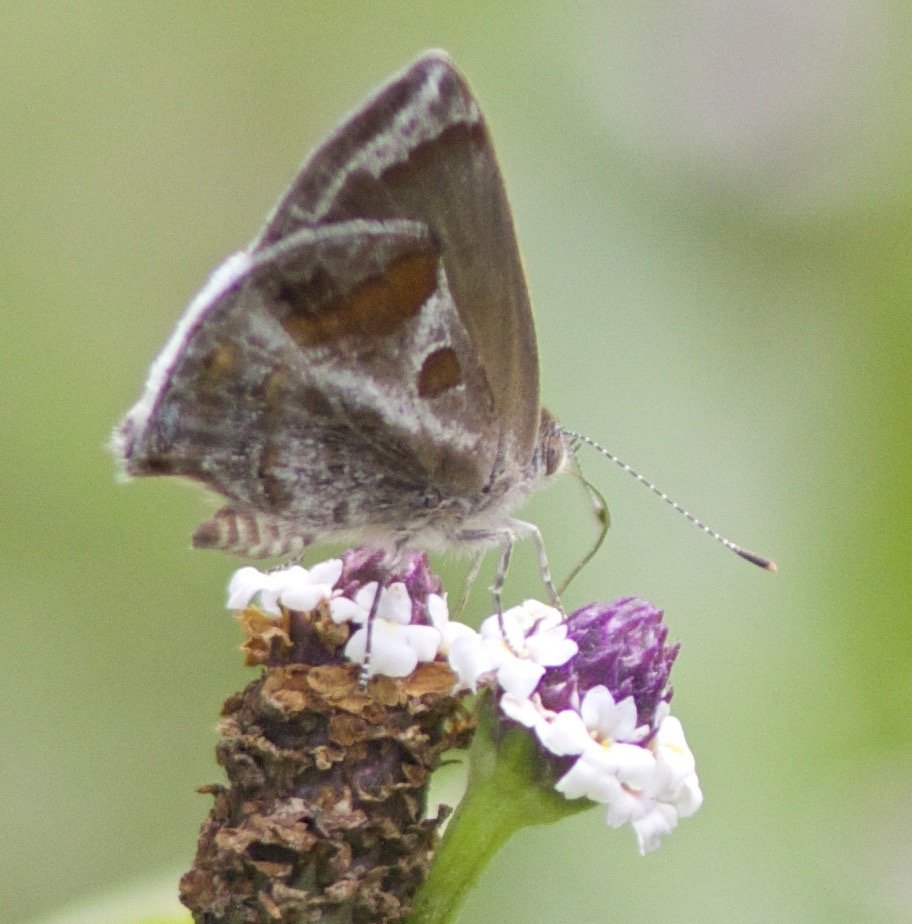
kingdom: Animalia
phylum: Arthropoda
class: Insecta
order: Lepidoptera
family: Lycaenidae
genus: Strymon
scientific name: Strymon bazochii
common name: Lantana Scrub-Hairstreak
